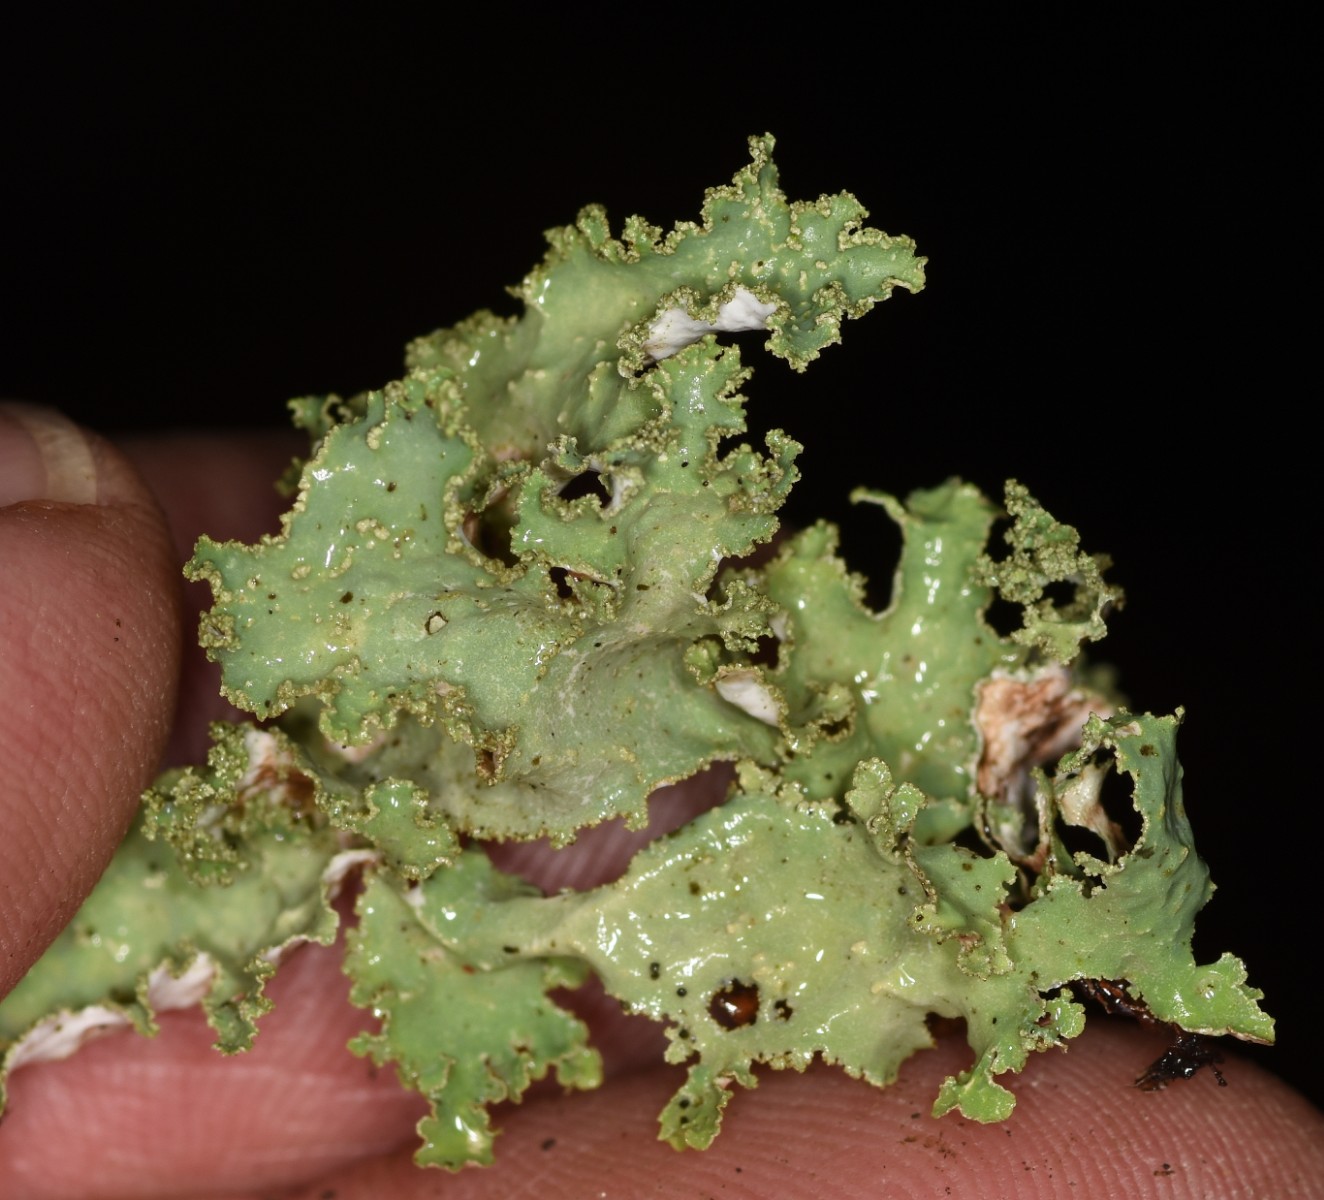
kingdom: Fungi
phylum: Ascomycota
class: Lecanoromycetes
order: Lecanorales
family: Parmeliaceae
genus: Platismatia
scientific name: Platismatia glauca
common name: blågrå papirlav
